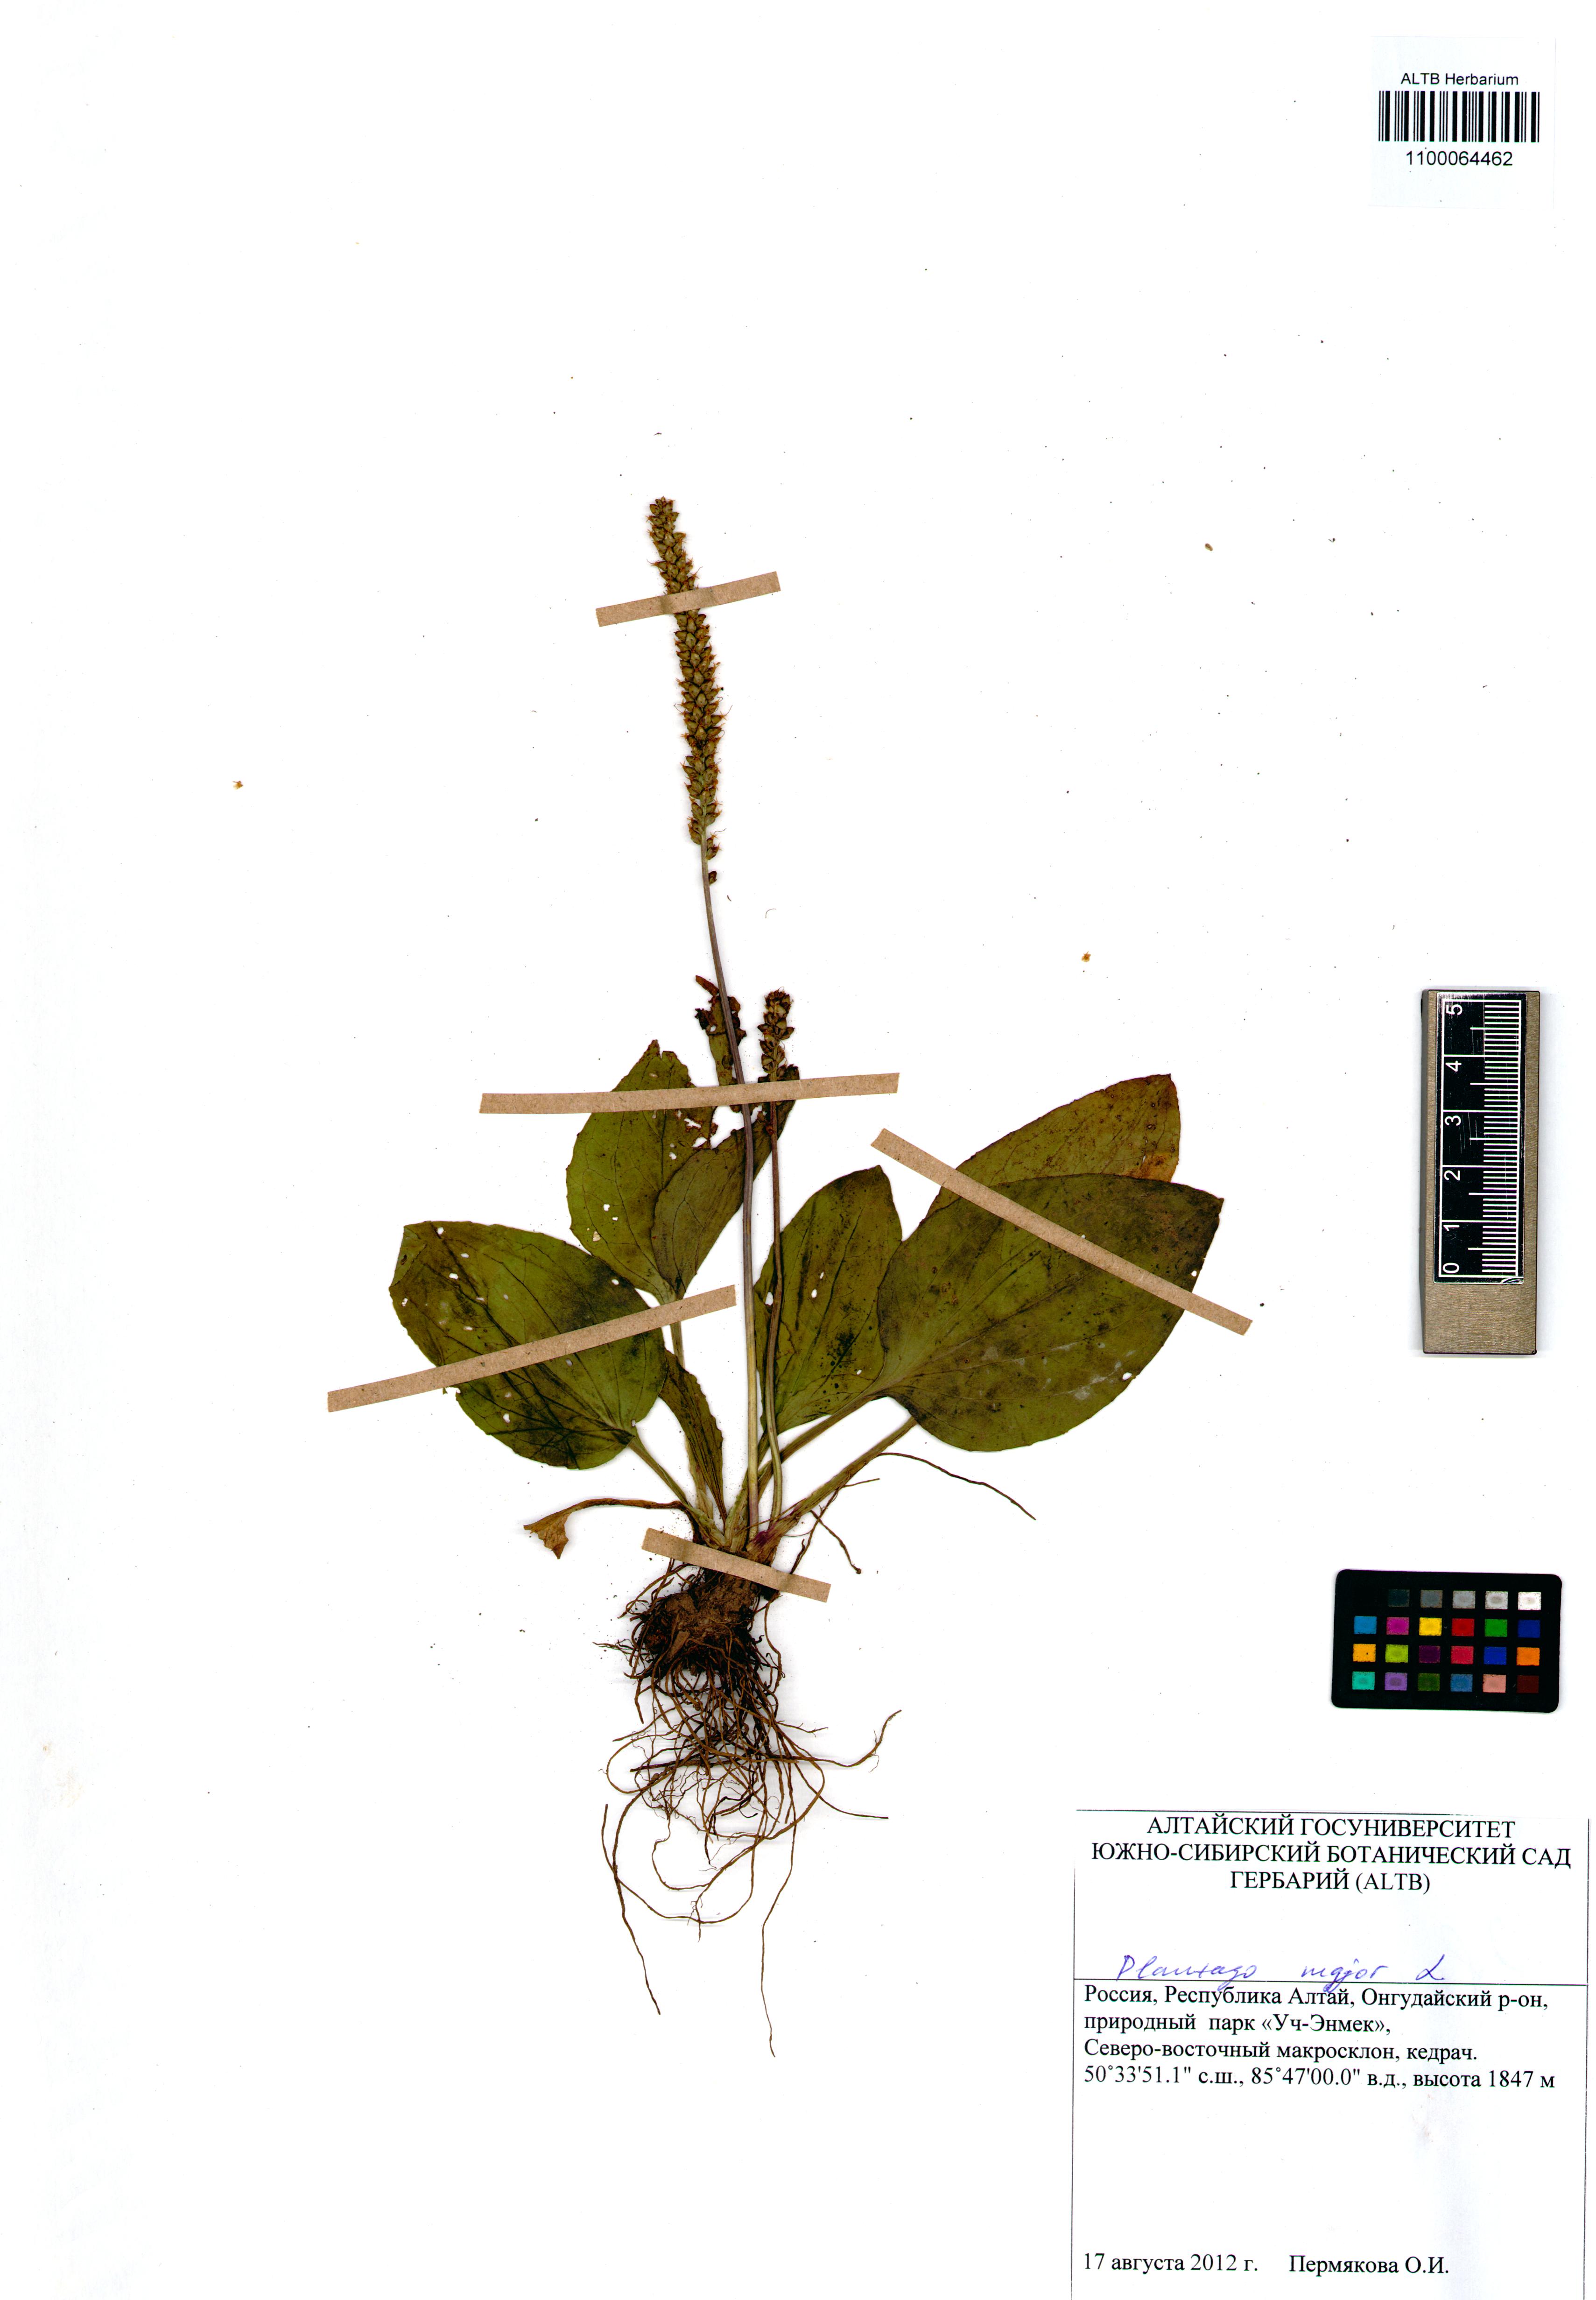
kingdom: Plantae
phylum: Tracheophyta
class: Magnoliopsida
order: Lamiales
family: Plantaginaceae
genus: Plantago
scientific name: Plantago major
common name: Common plantain
